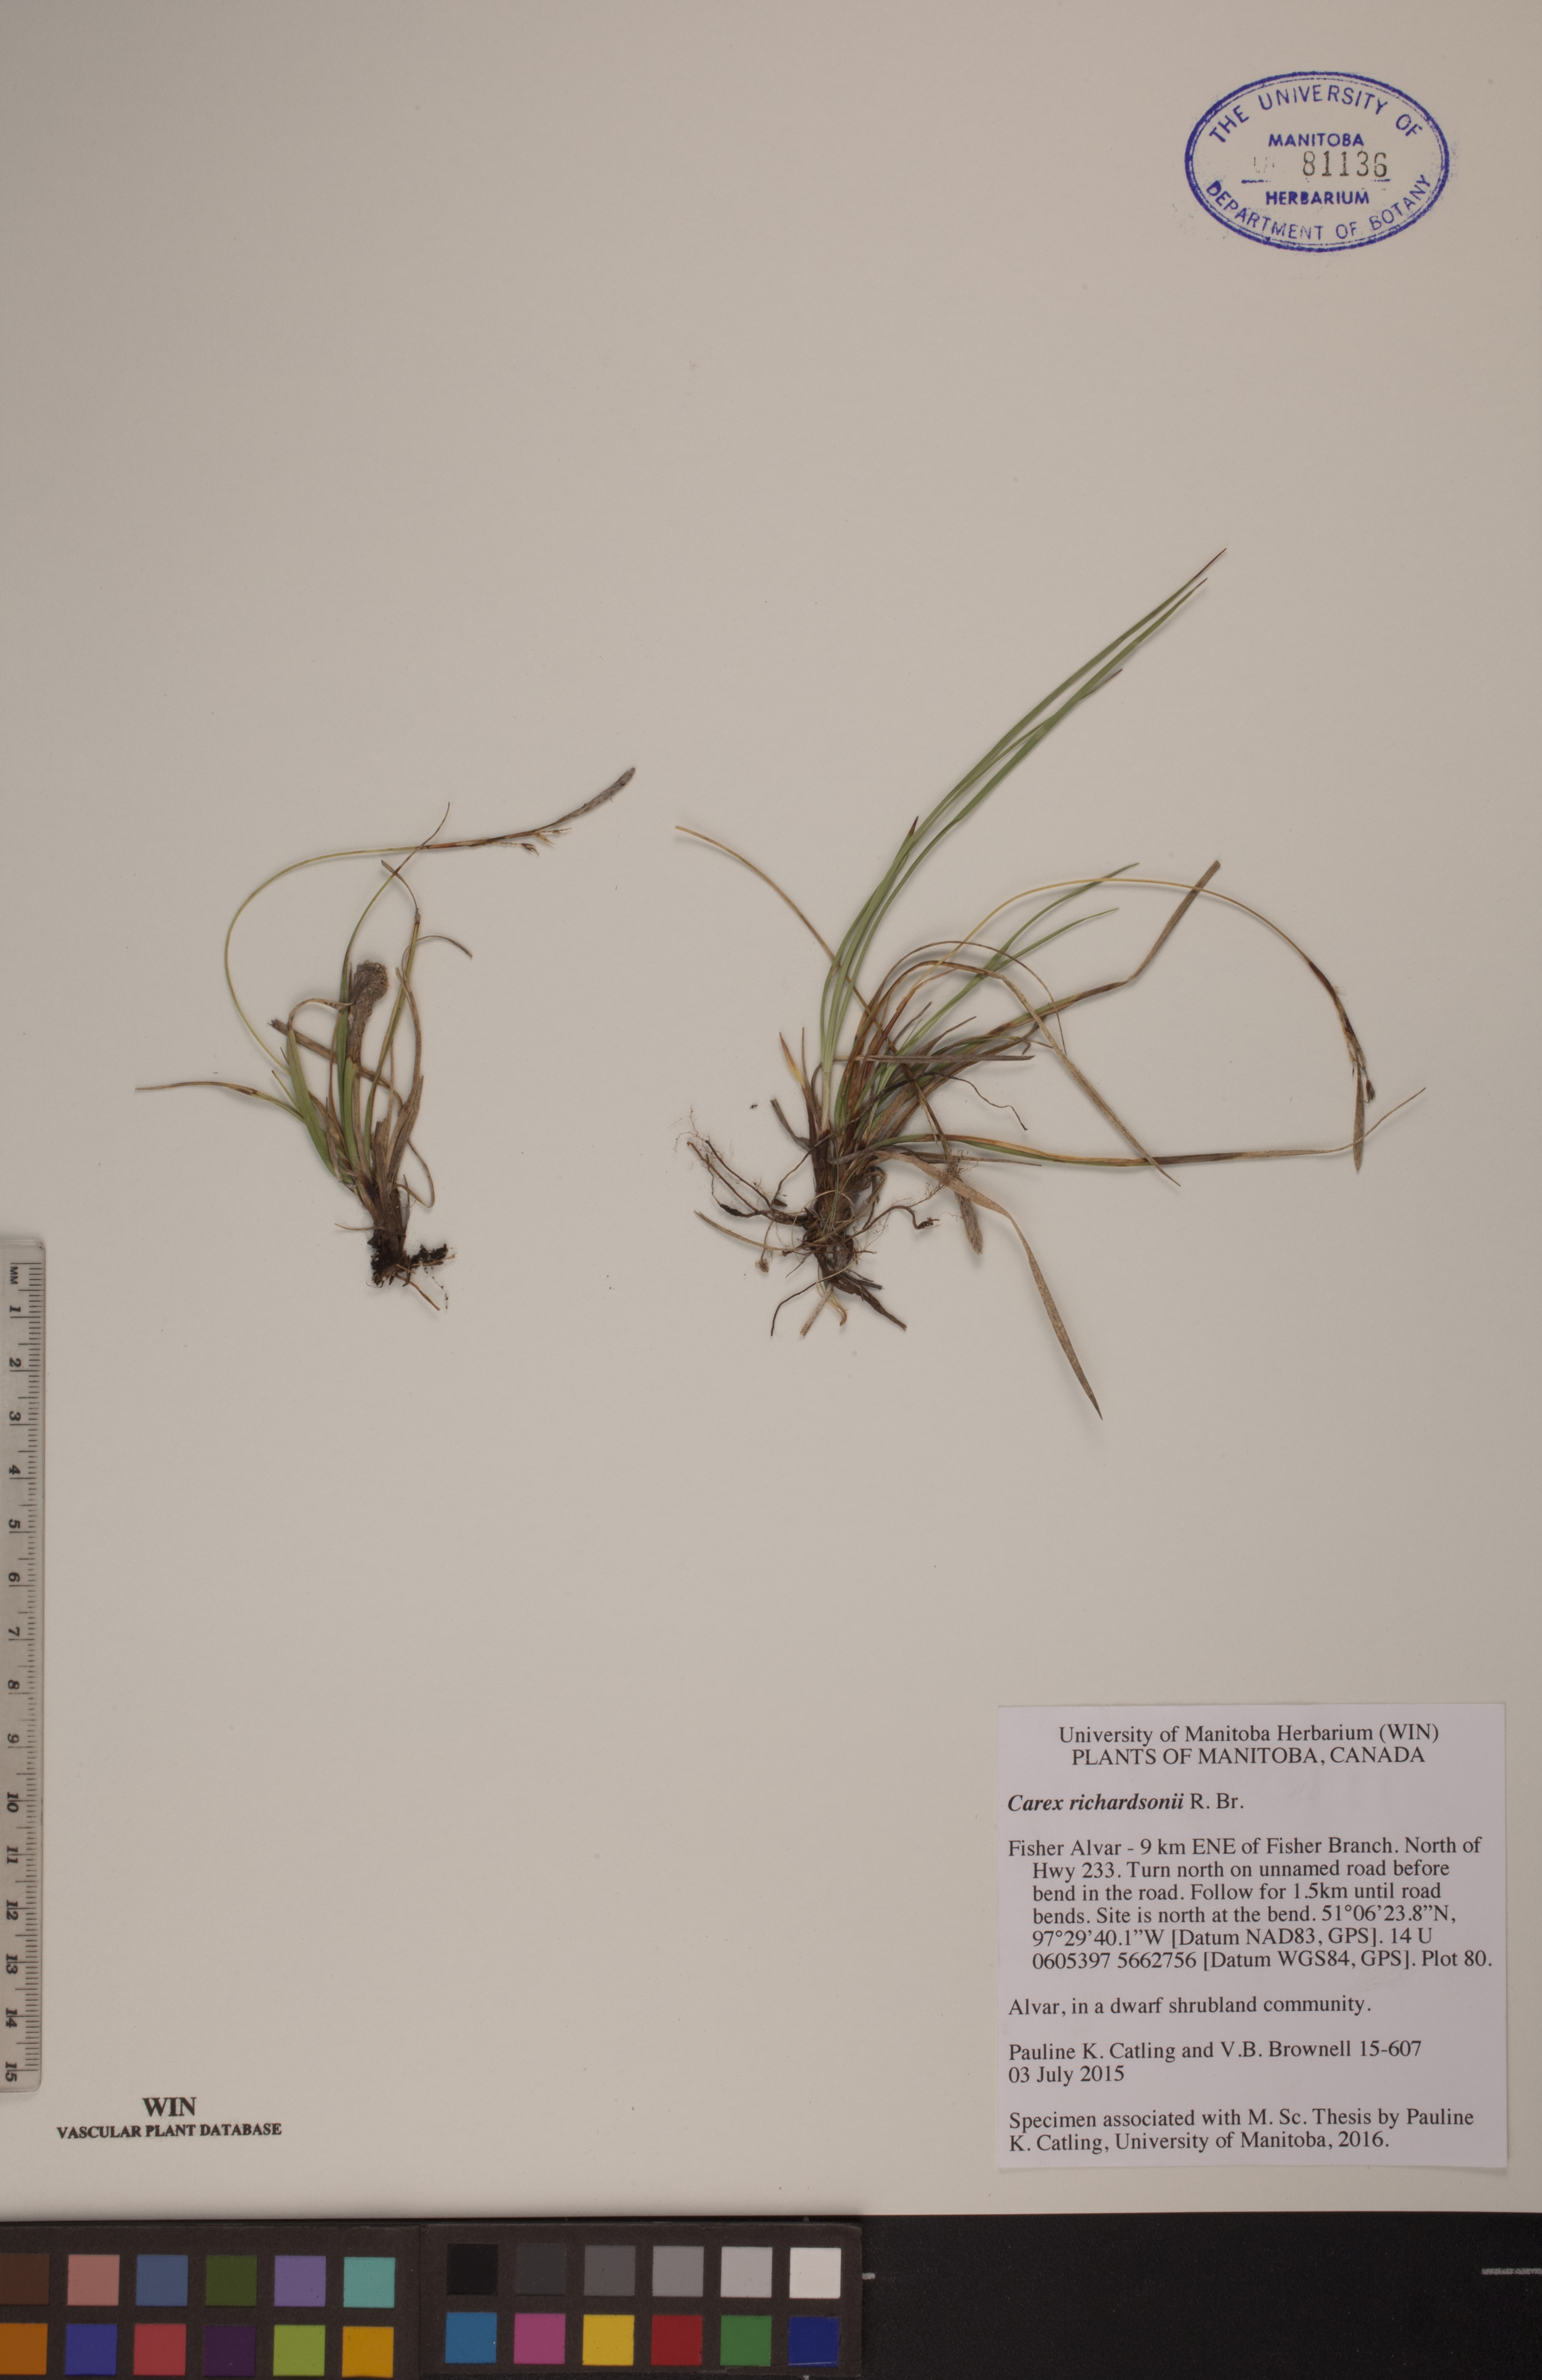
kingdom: Plantae
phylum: Tracheophyta
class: Liliopsida
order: Poales
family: Cyperaceae
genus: Carex
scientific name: Carex richardsonii
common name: Prairie hummock sedge
